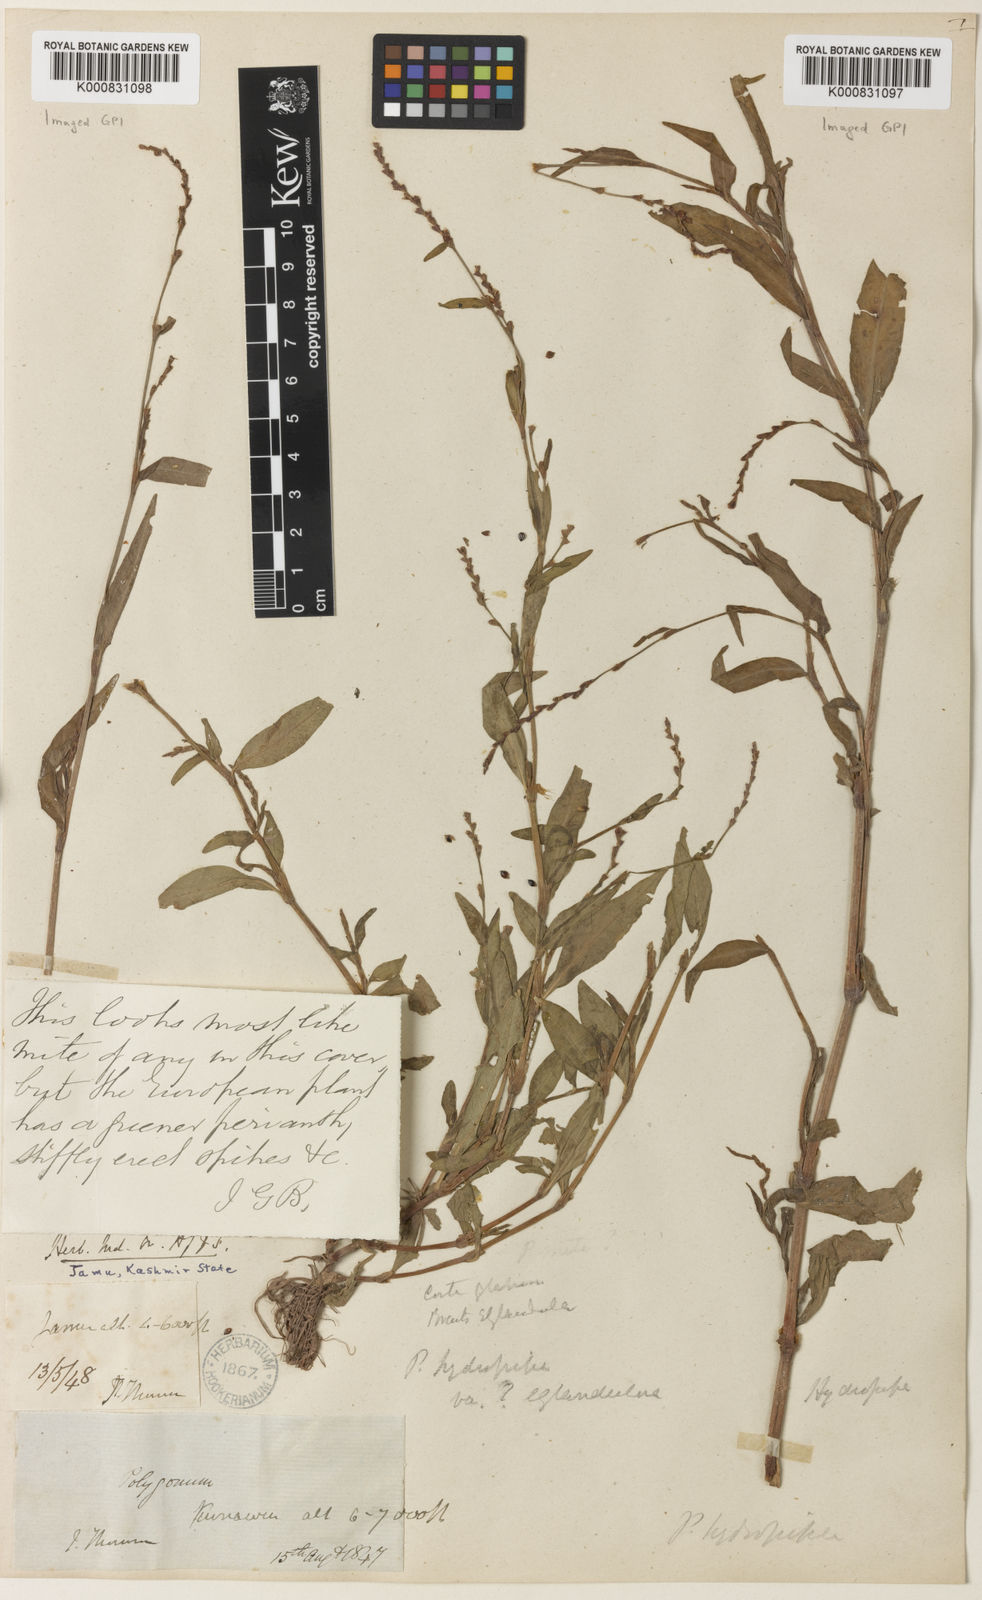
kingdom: Plantae
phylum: Tracheophyta
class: Magnoliopsida
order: Caryophyllales
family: Polygonaceae
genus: Persicaria
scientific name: Persicaria hydropiper
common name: Water-pepper
